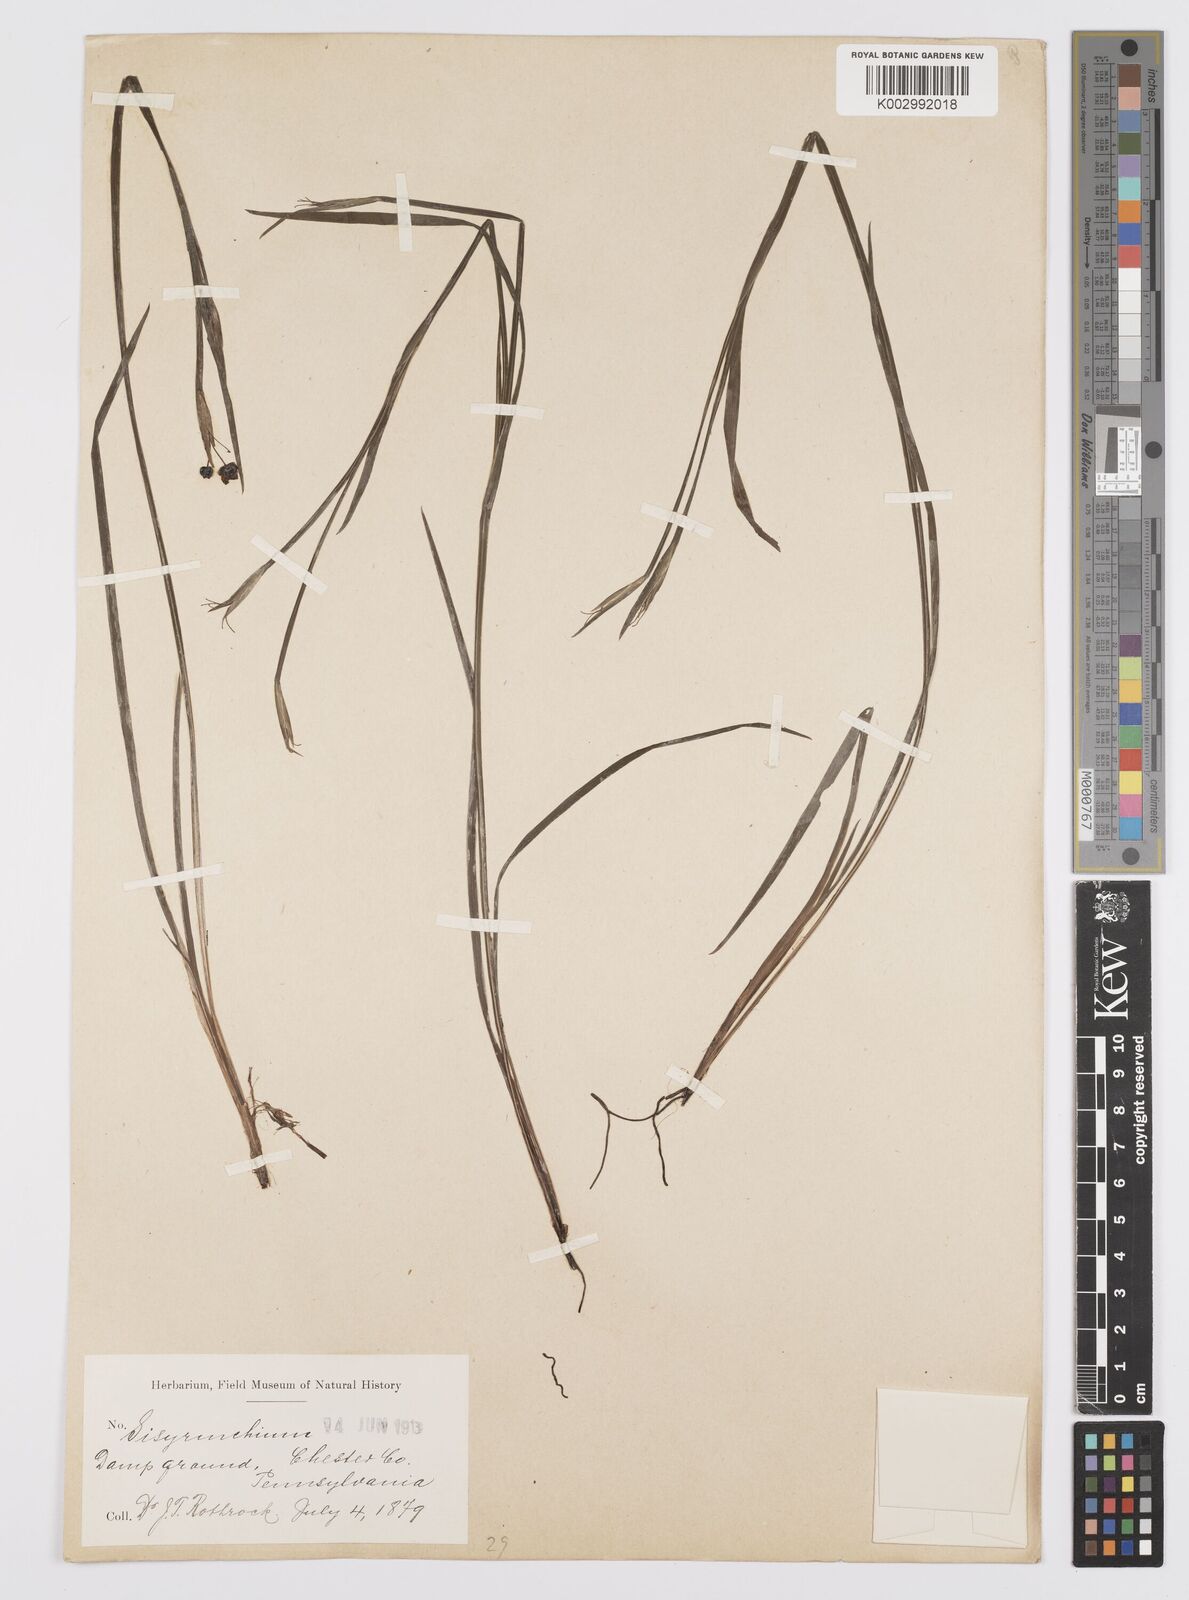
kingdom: Plantae
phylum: Tracheophyta
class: Liliopsida
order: Asparagales
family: Iridaceae
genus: Sisyrinchium
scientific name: Sisyrinchium
